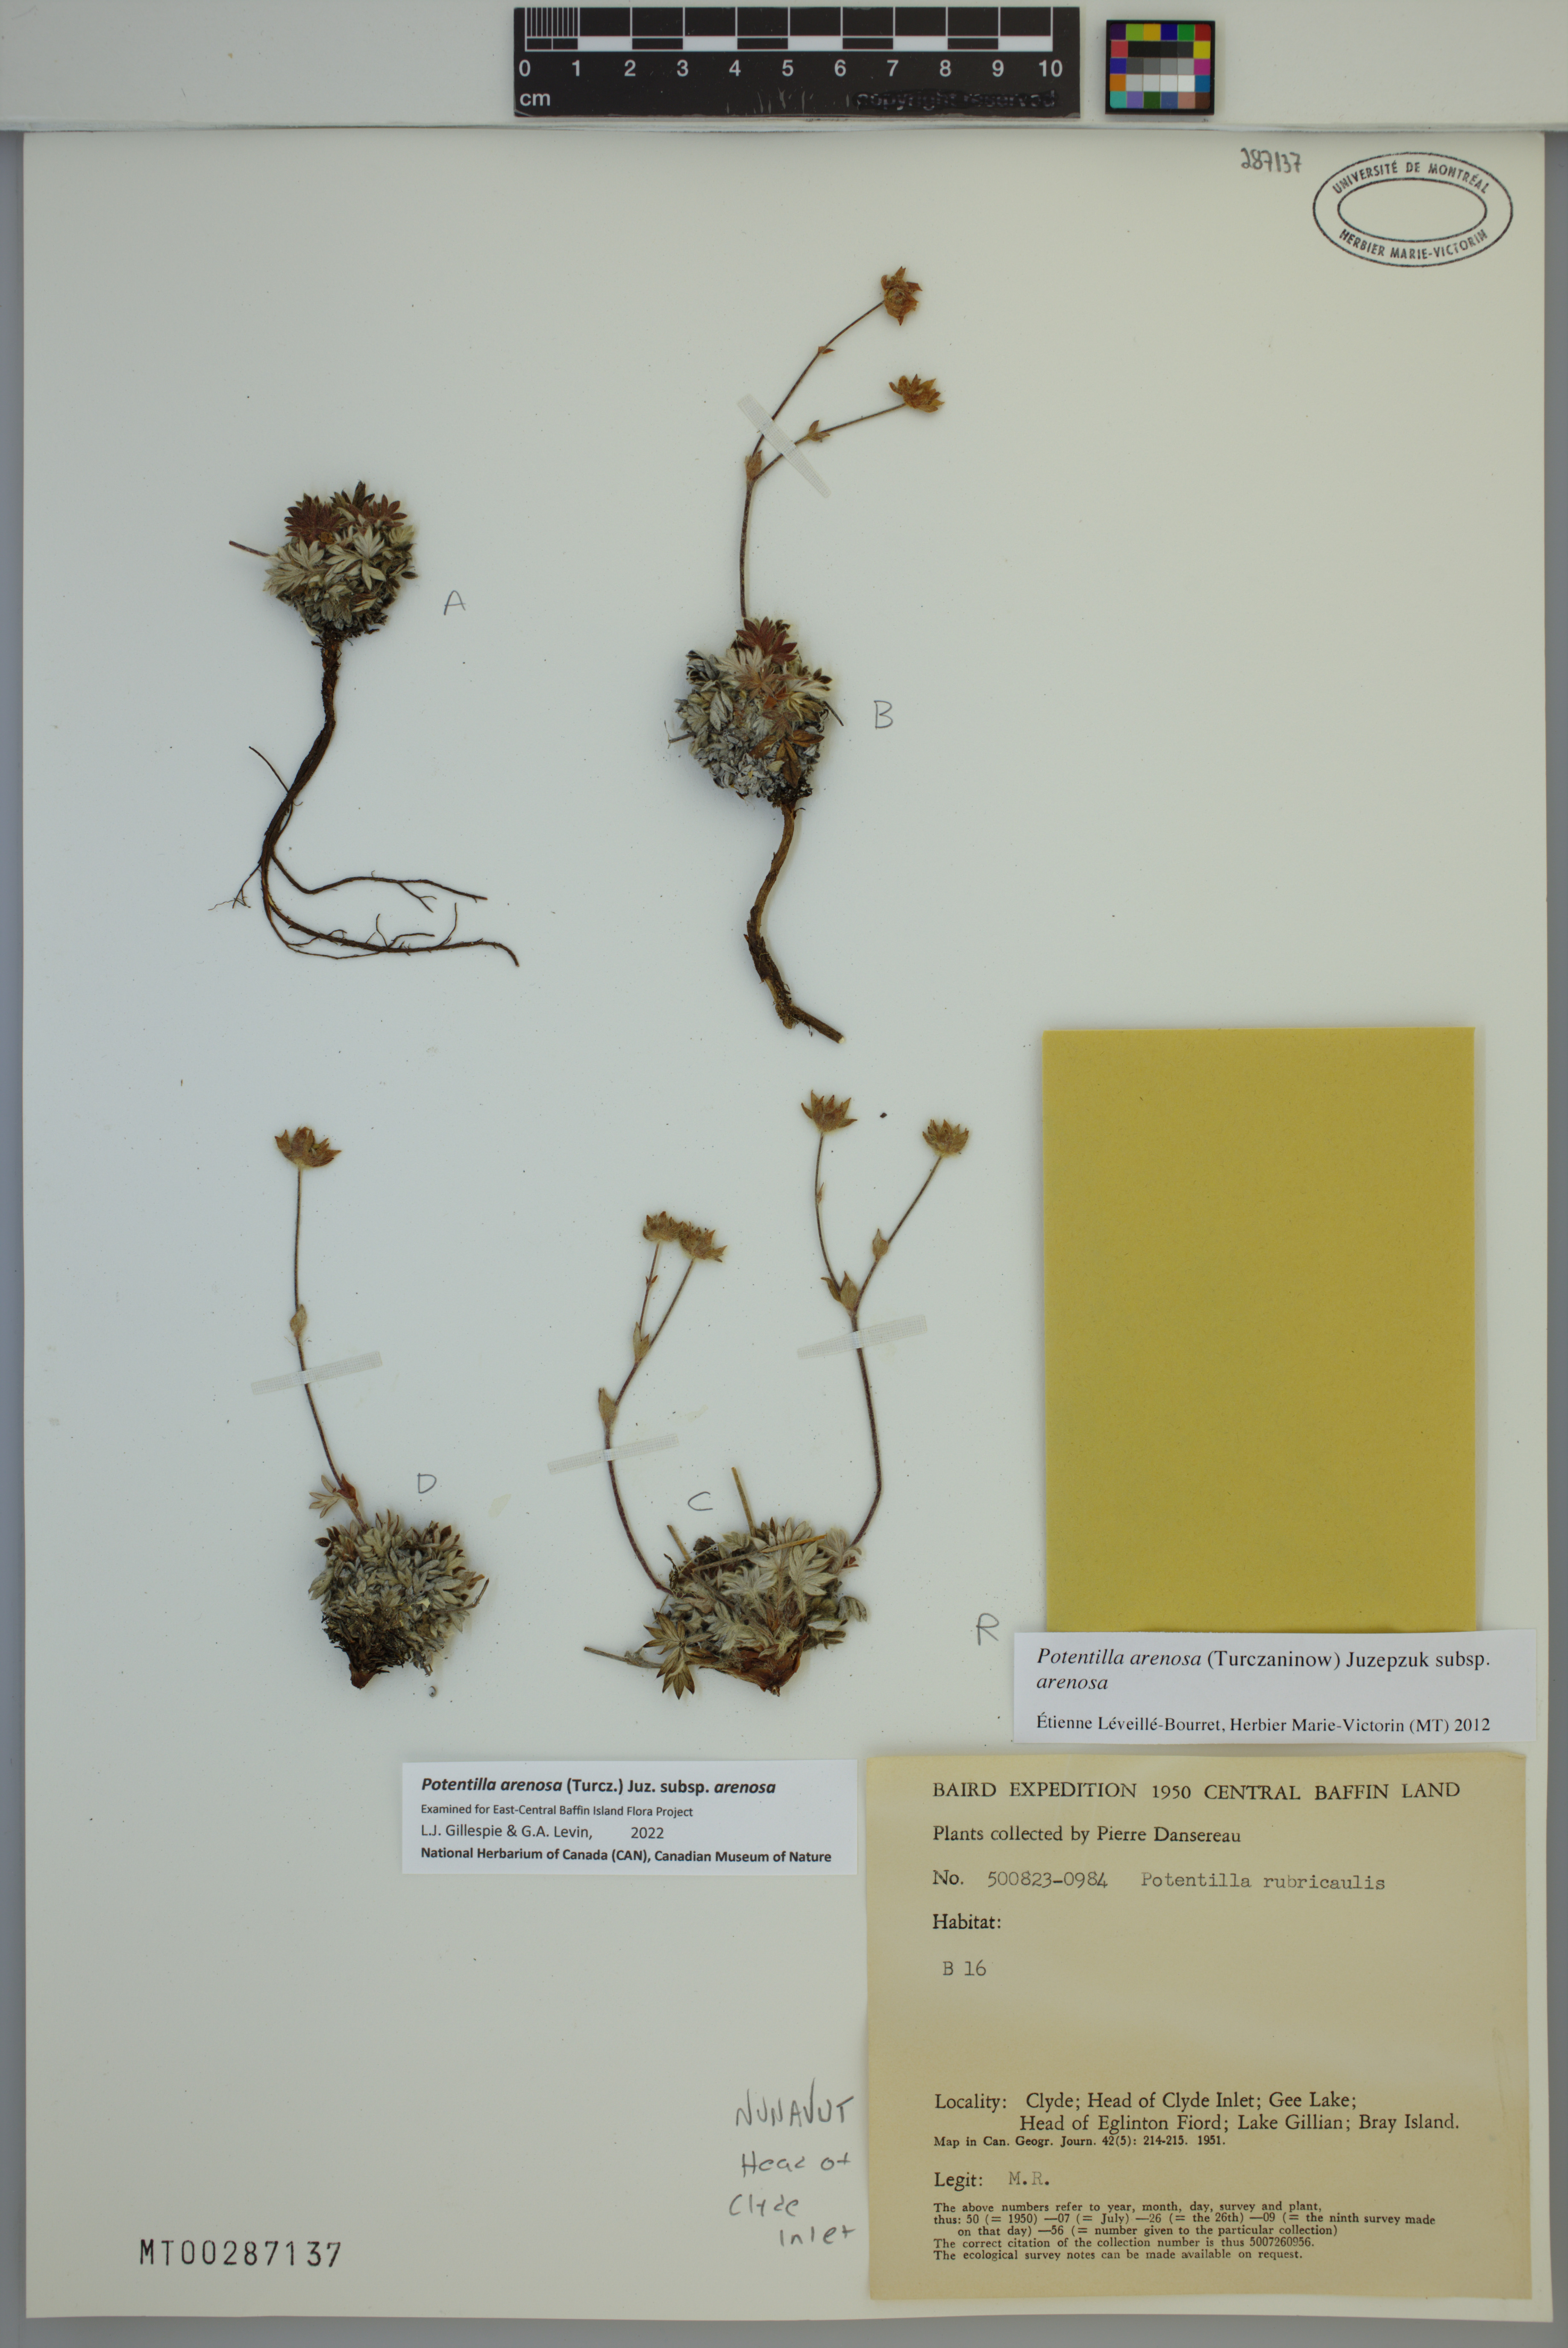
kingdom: Plantae
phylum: Tracheophyta
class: Magnoliopsida
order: Rosales
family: Rosaceae
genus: Potentilla
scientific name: Potentilla arenosa
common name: Bluff cinquefoil
